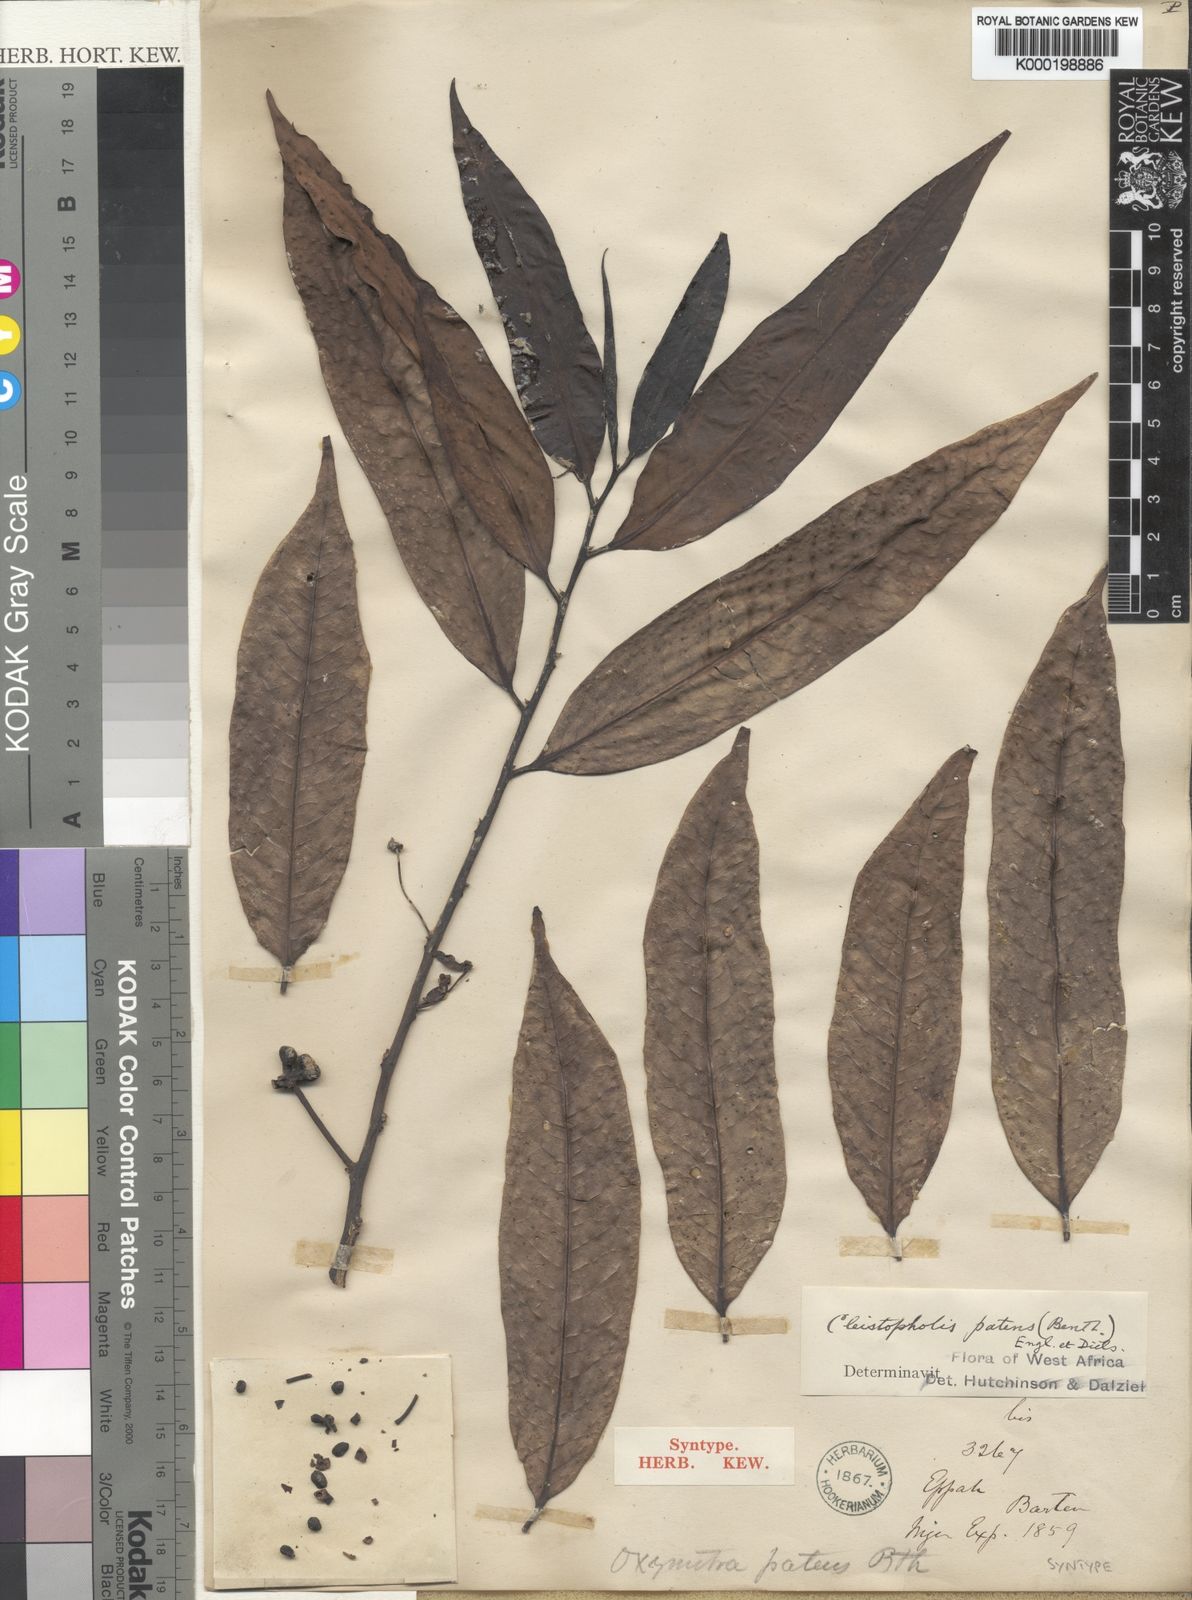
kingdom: Plantae
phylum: Tracheophyta
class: Magnoliopsida
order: Magnoliales
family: Annonaceae
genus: Cleistopholis
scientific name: Cleistopholis patens
